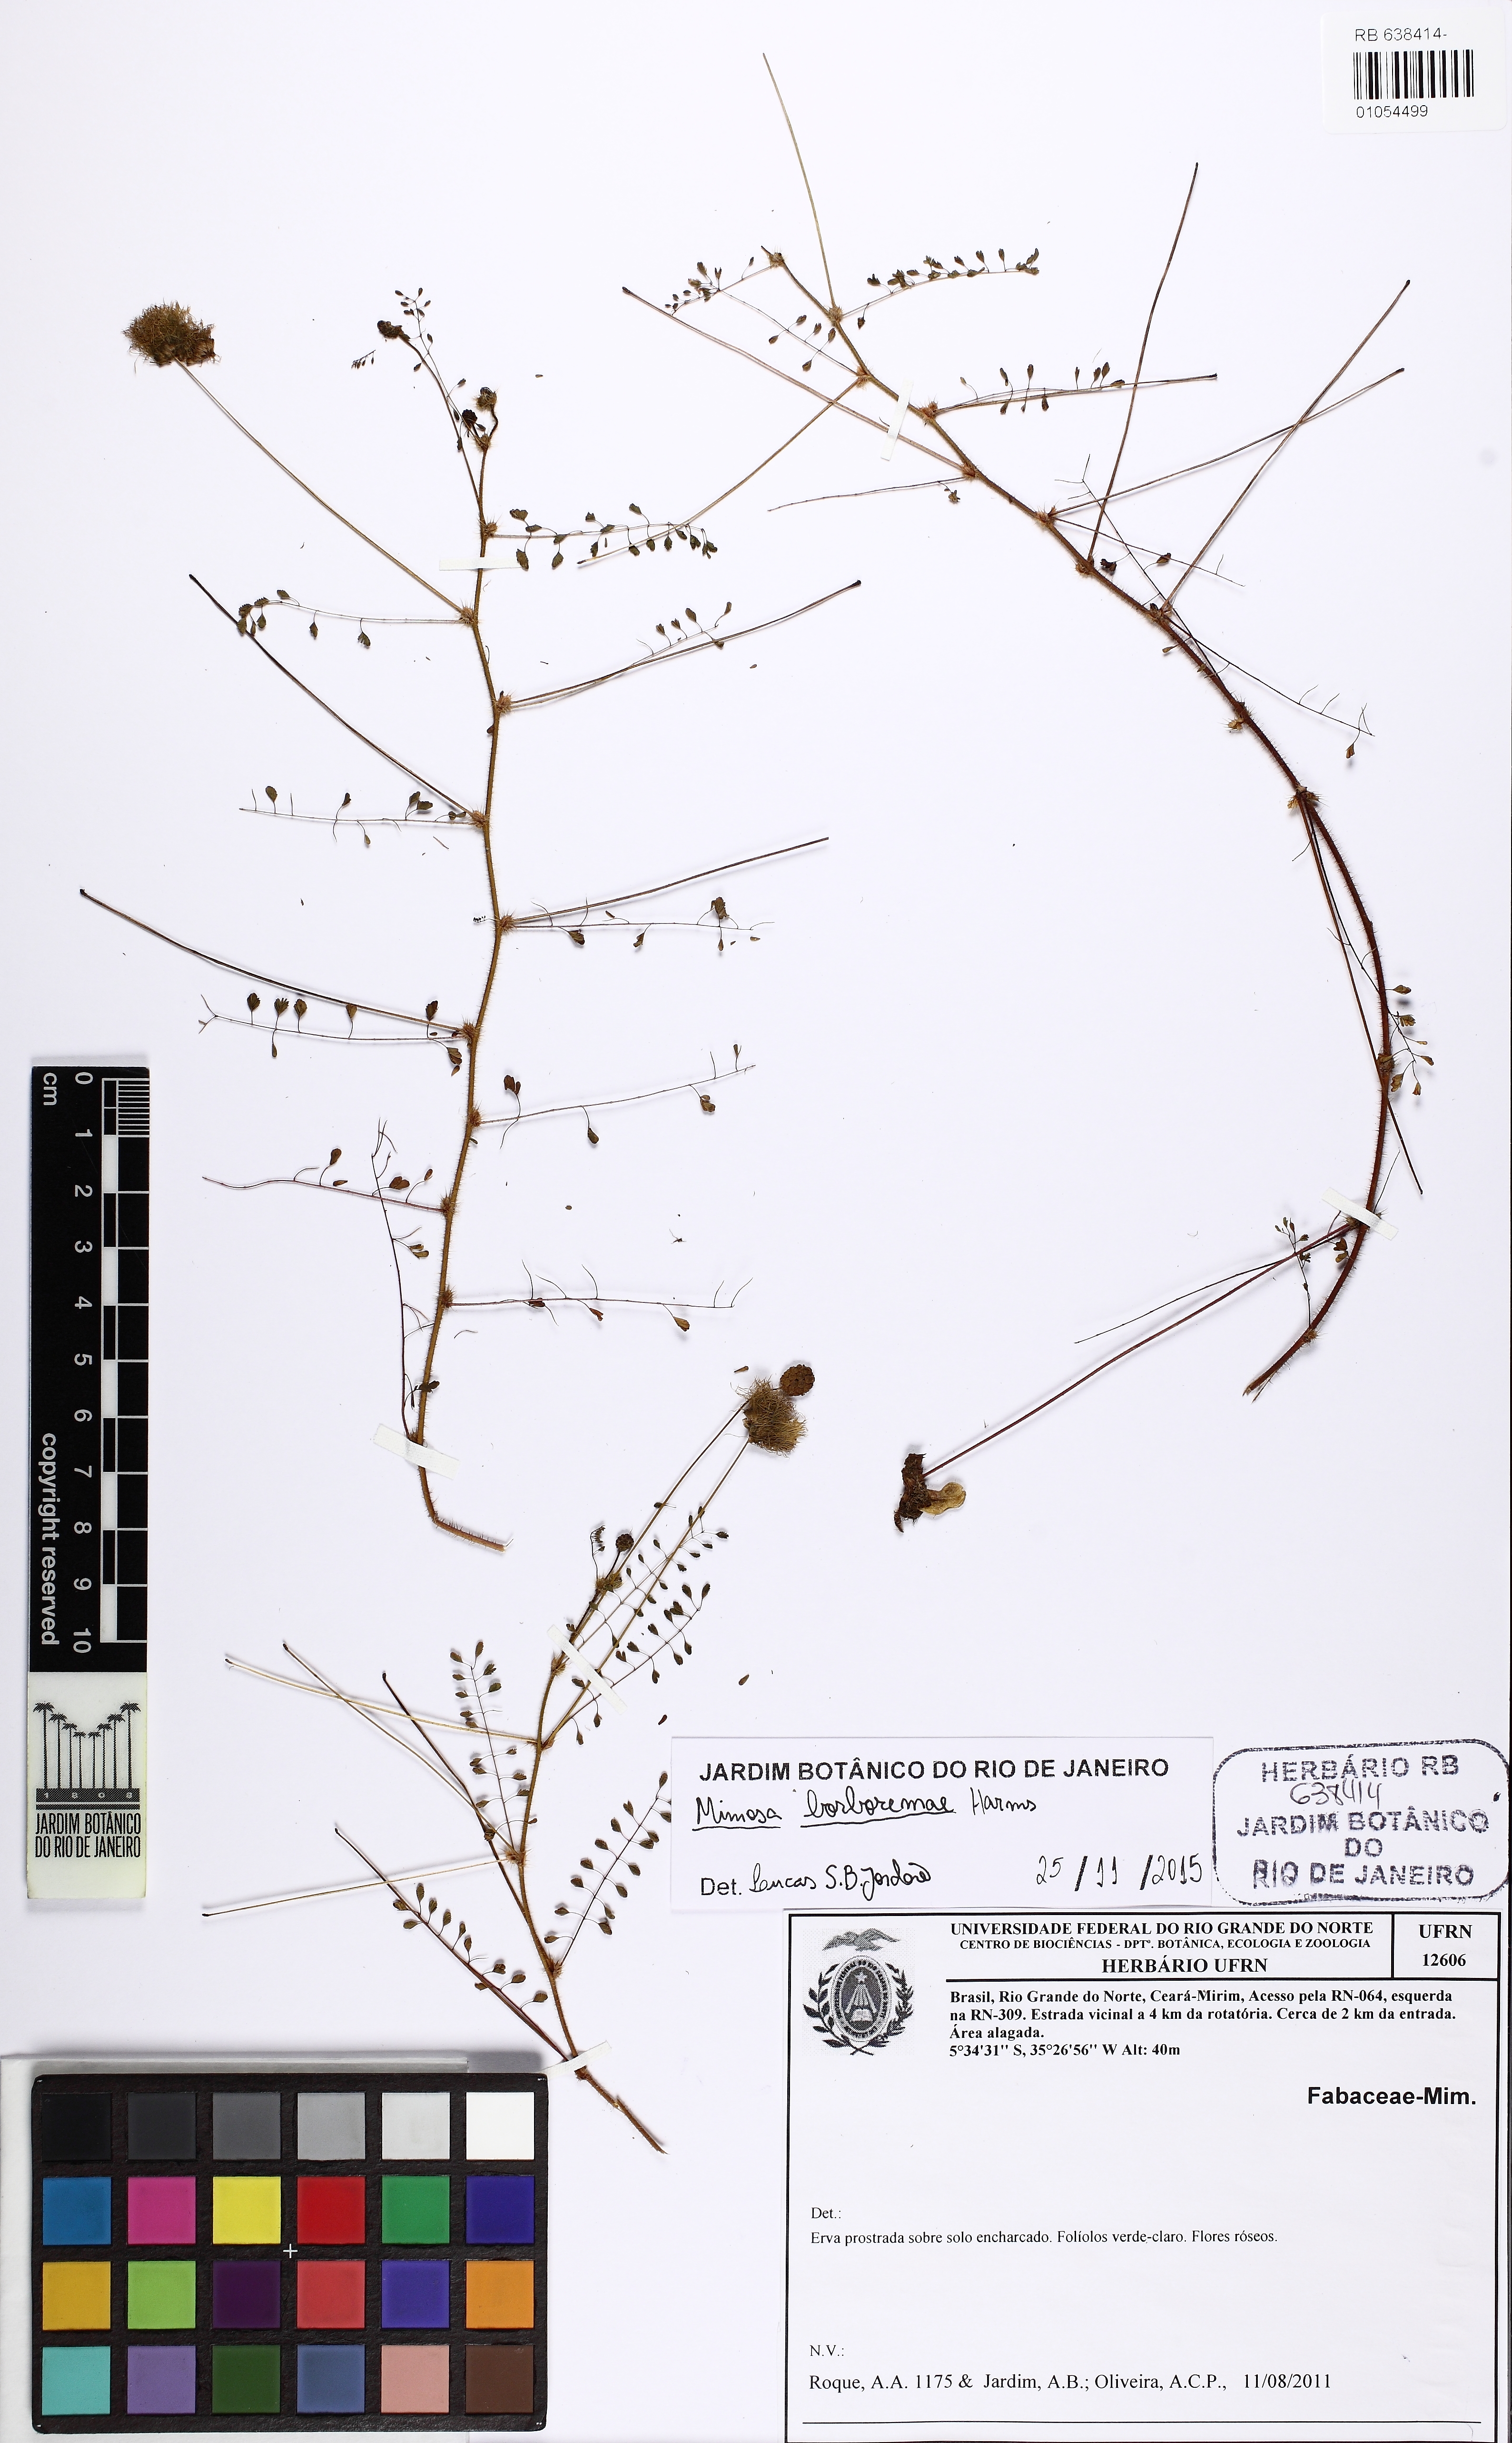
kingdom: Plantae
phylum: Tracheophyta
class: Magnoliopsida
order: Fabales
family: Fabaceae
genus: Mimosa
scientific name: Mimosa borboremae
